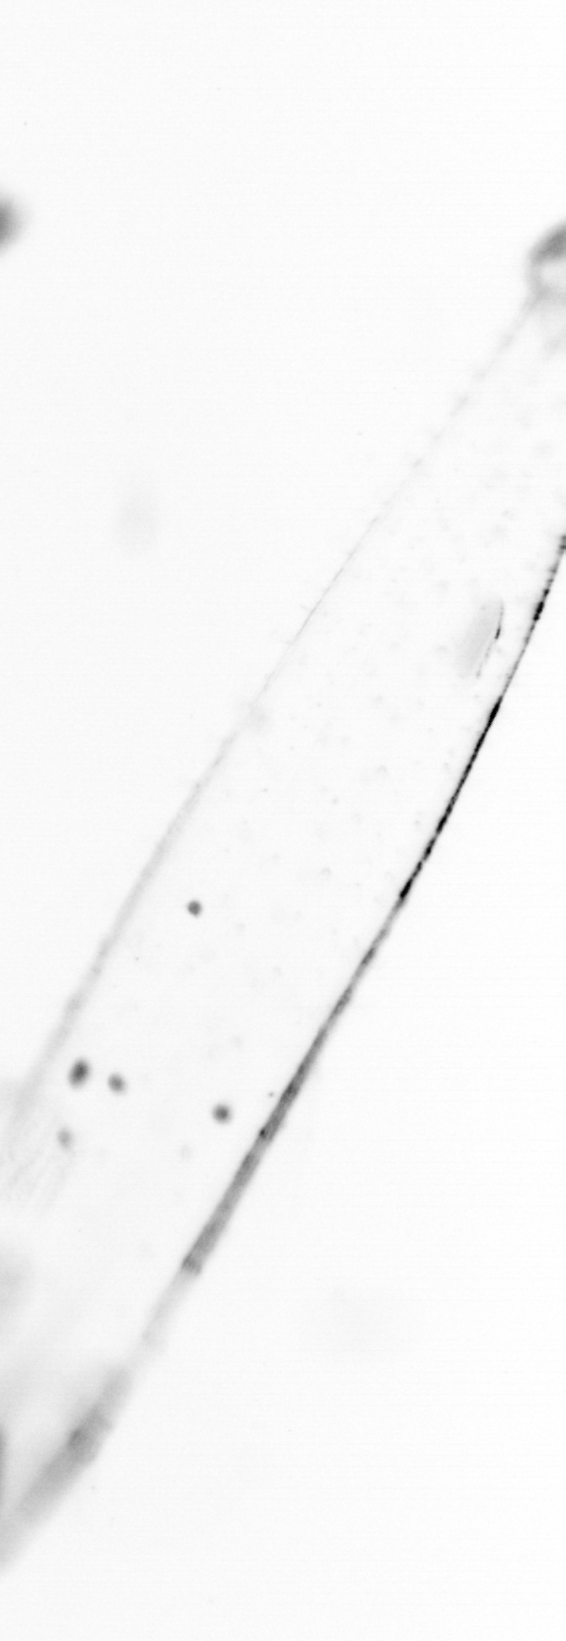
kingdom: Animalia
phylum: Chaetognatha
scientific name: Chaetognatha
